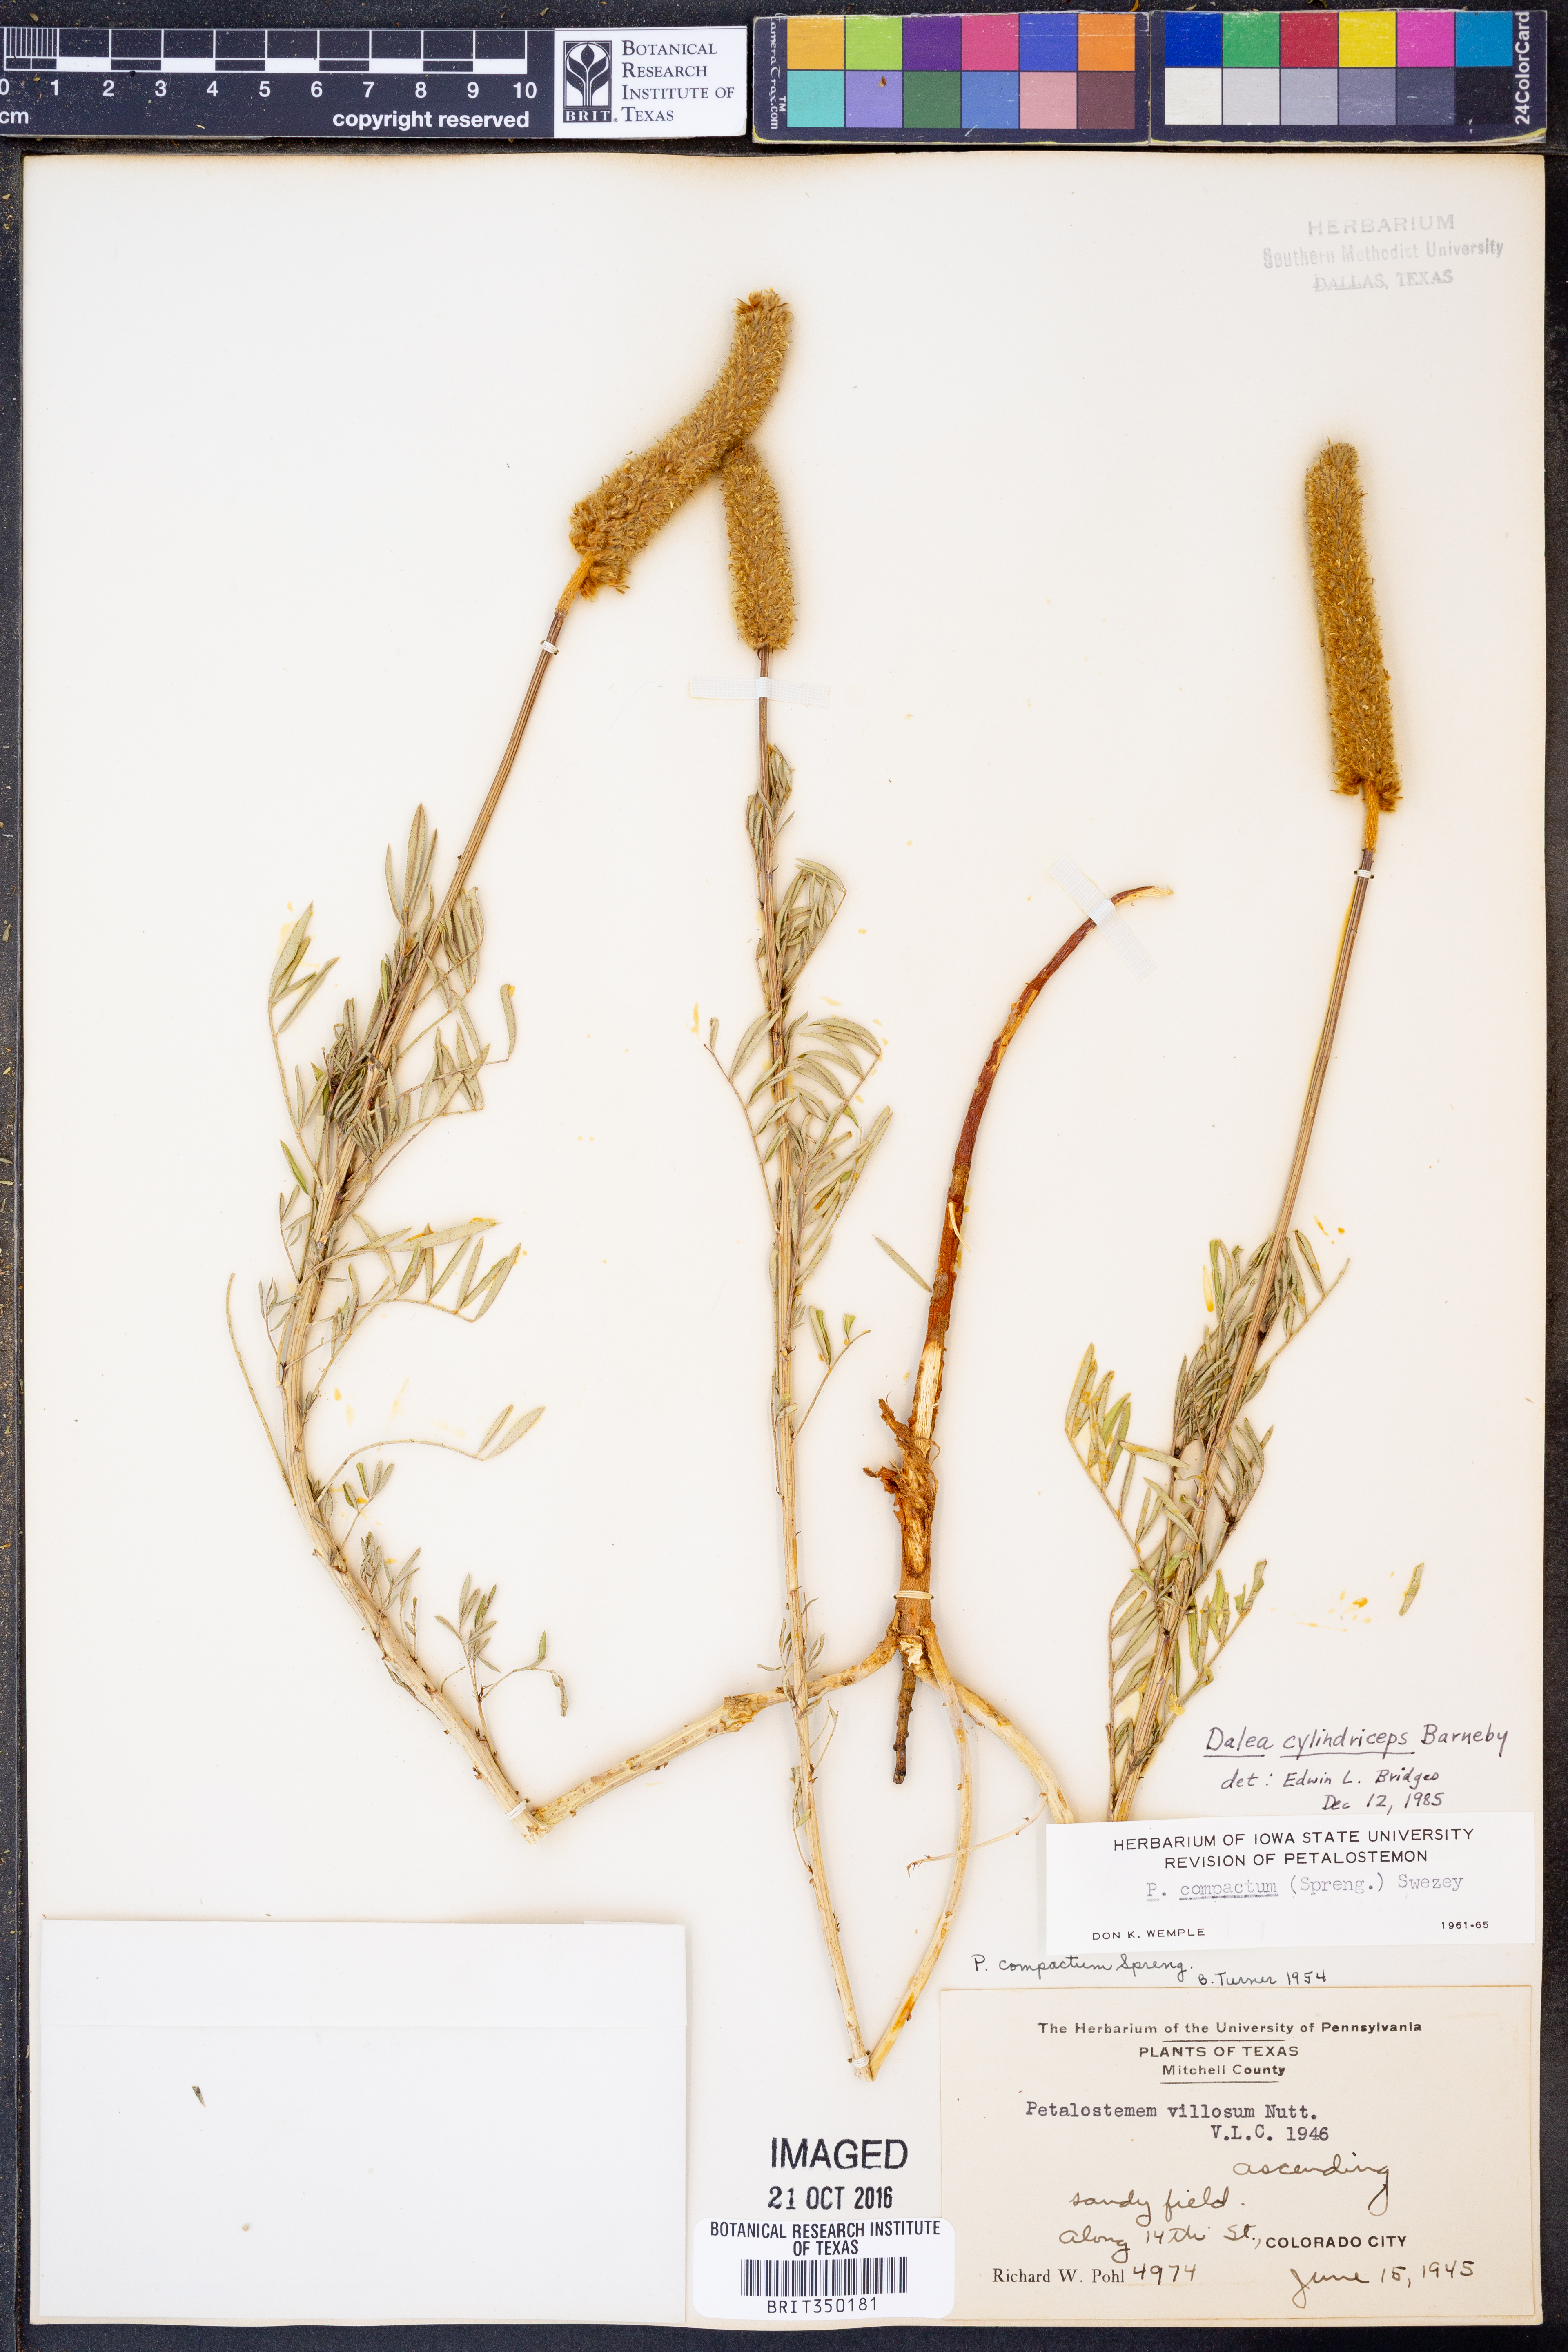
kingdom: Plantae
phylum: Tracheophyta
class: Magnoliopsida
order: Fabales
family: Fabaceae
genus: Dalea
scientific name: Dalea cylindriceps
